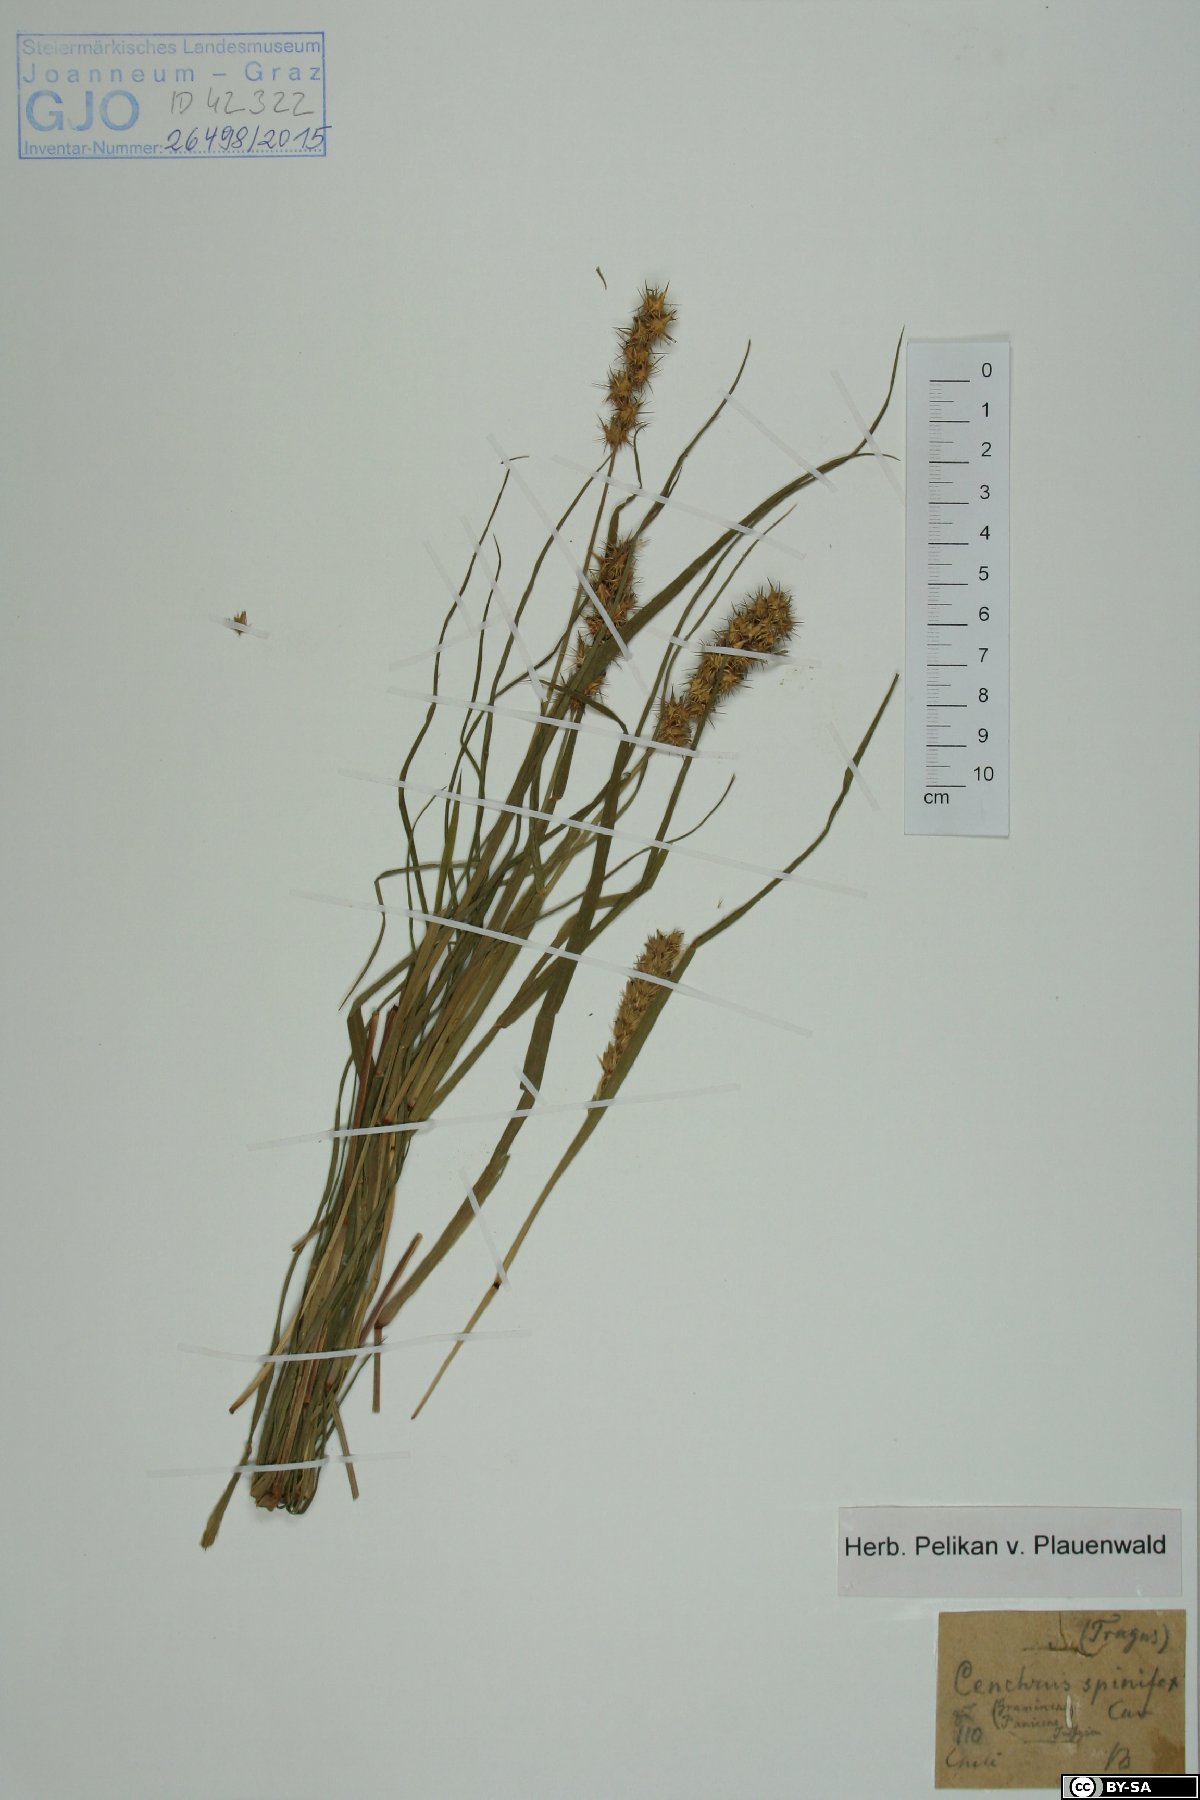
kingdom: Plantae
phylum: Tracheophyta
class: Liliopsida
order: Poales
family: Poaceae
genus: Cenchrus
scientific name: Cenchrus spinifex
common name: Coast sandbur
